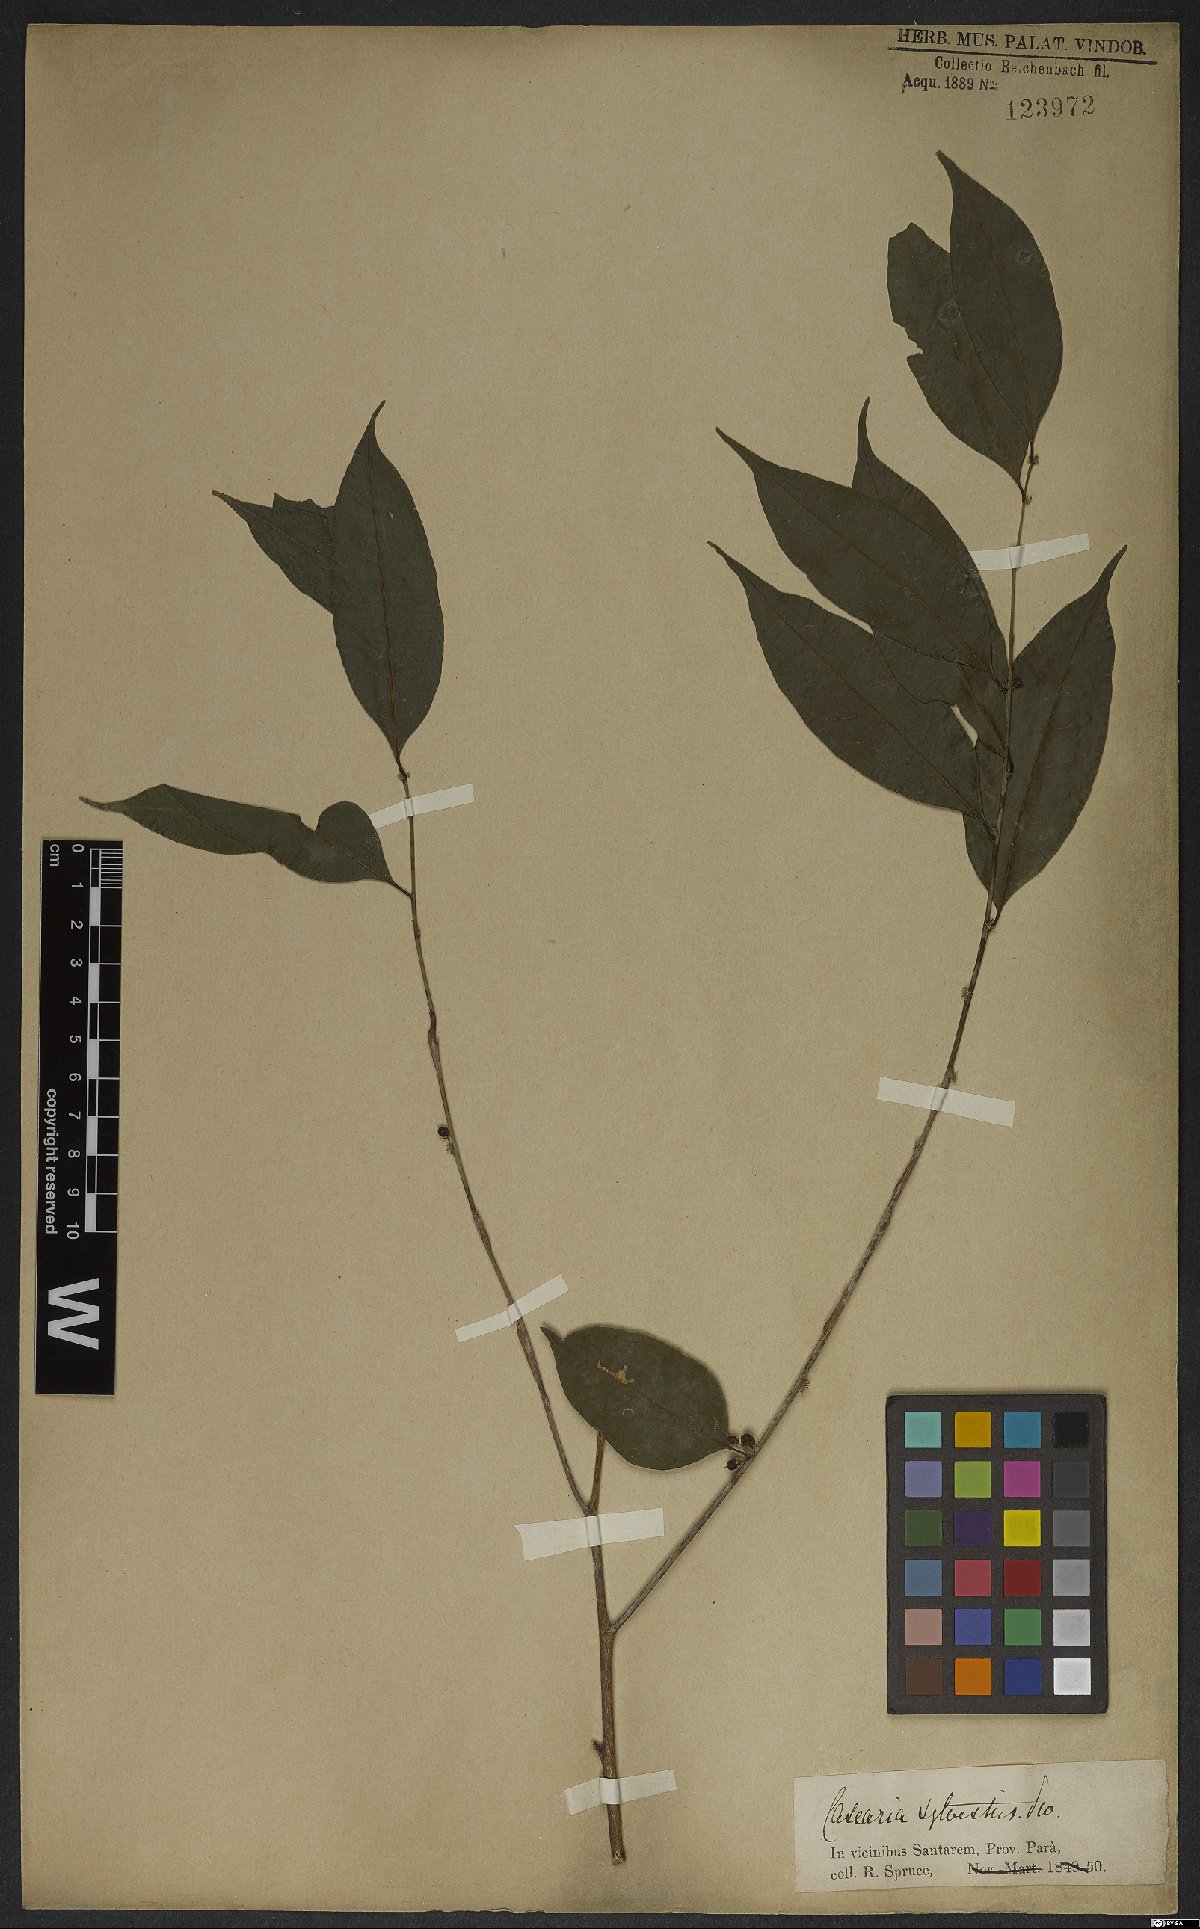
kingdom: Plantae
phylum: Tracheophyta
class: Magnoliopsida
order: Malpighiales
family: Salicaceae
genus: Casearia
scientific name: Casearia sylvestris
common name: Wild sage
